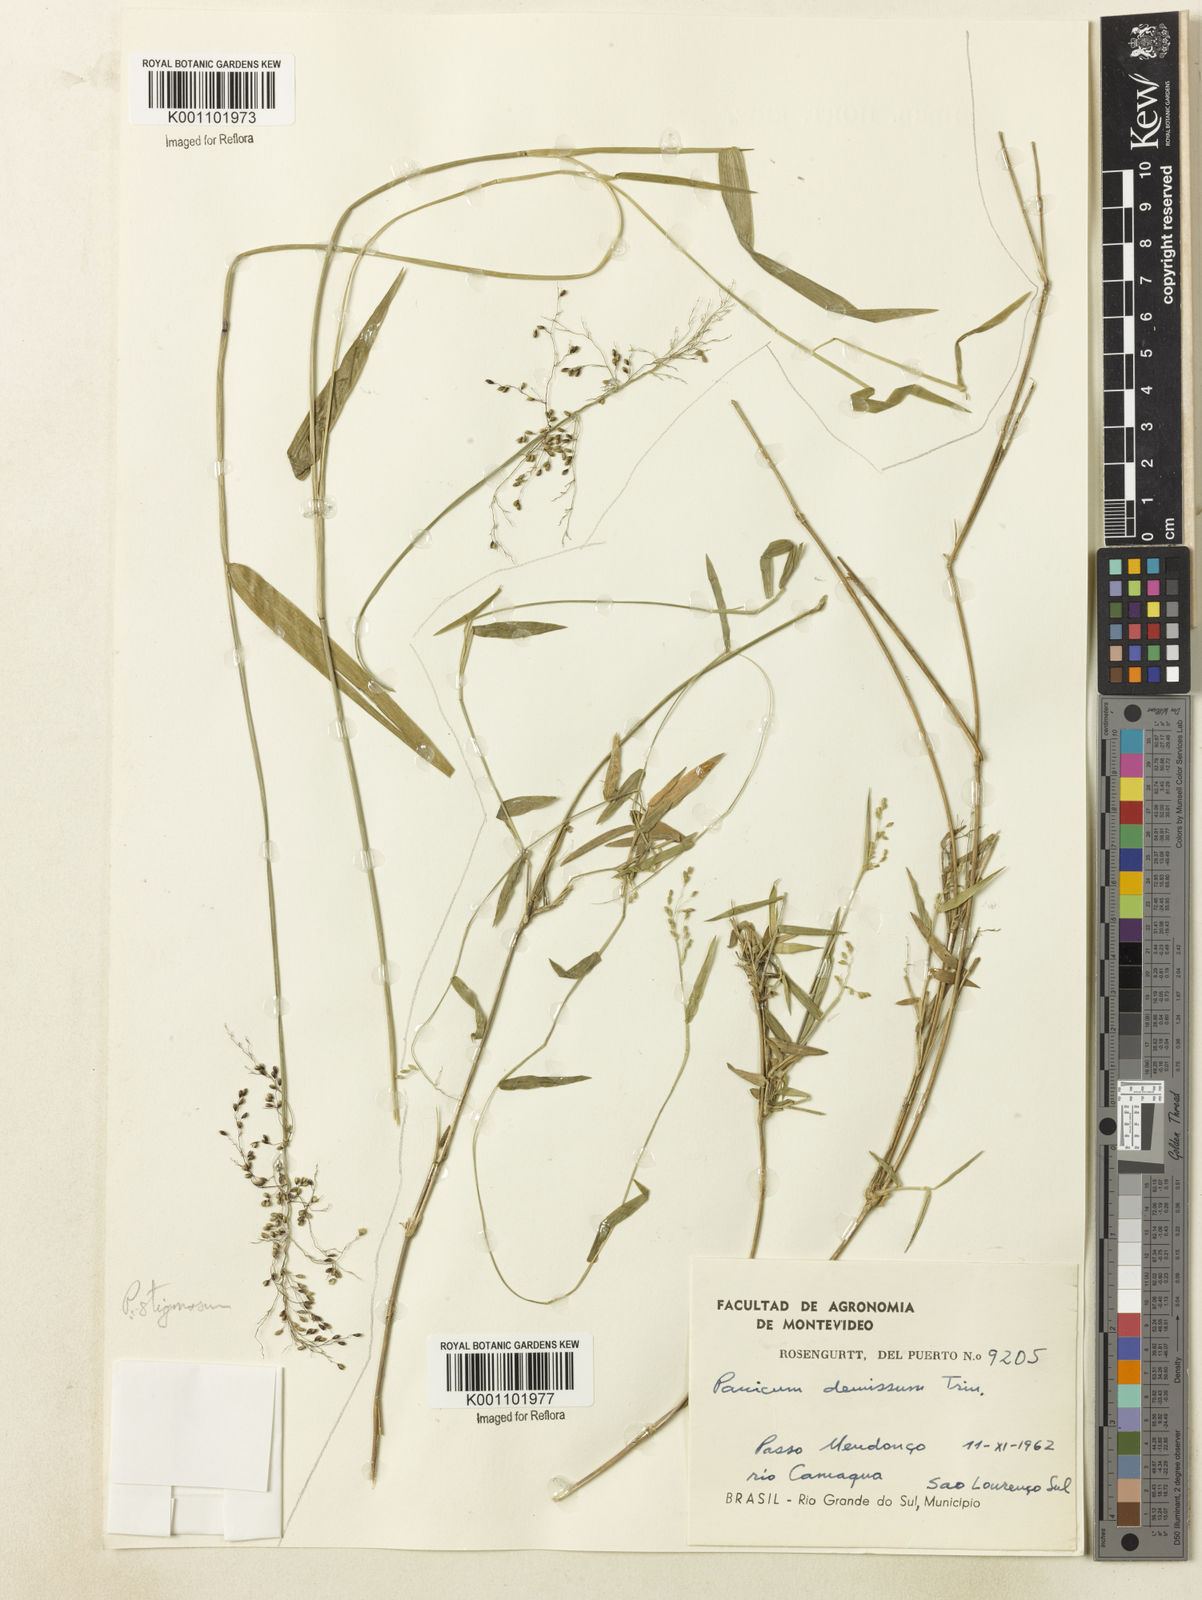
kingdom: Plantae
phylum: Tracheophyta
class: Liliopsida
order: Poales
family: Poaceae
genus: Dichanthelium
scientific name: Dichanthelium sabulorum
